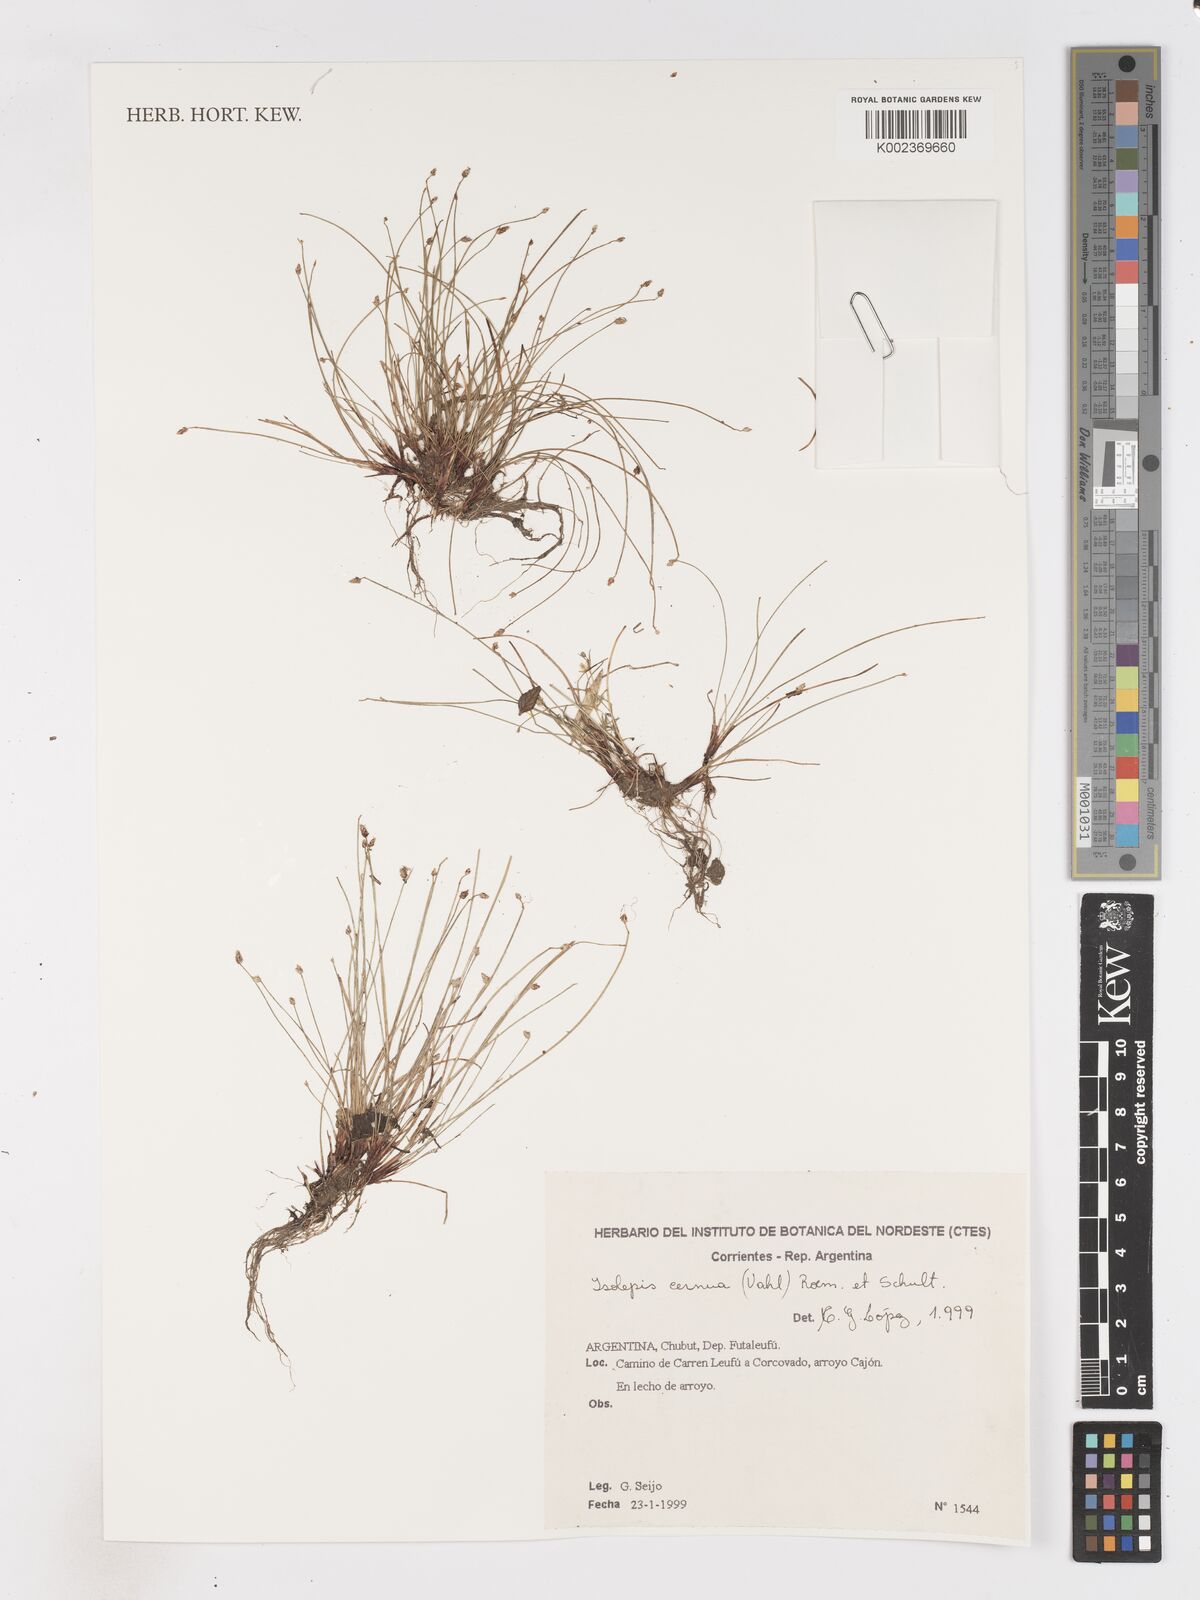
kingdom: Plantae
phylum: Tracheophyta
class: Liliopsida
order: Poales
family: Cyperaceae
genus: Isolepis
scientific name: Isolepis cernua
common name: Slender club-rush
